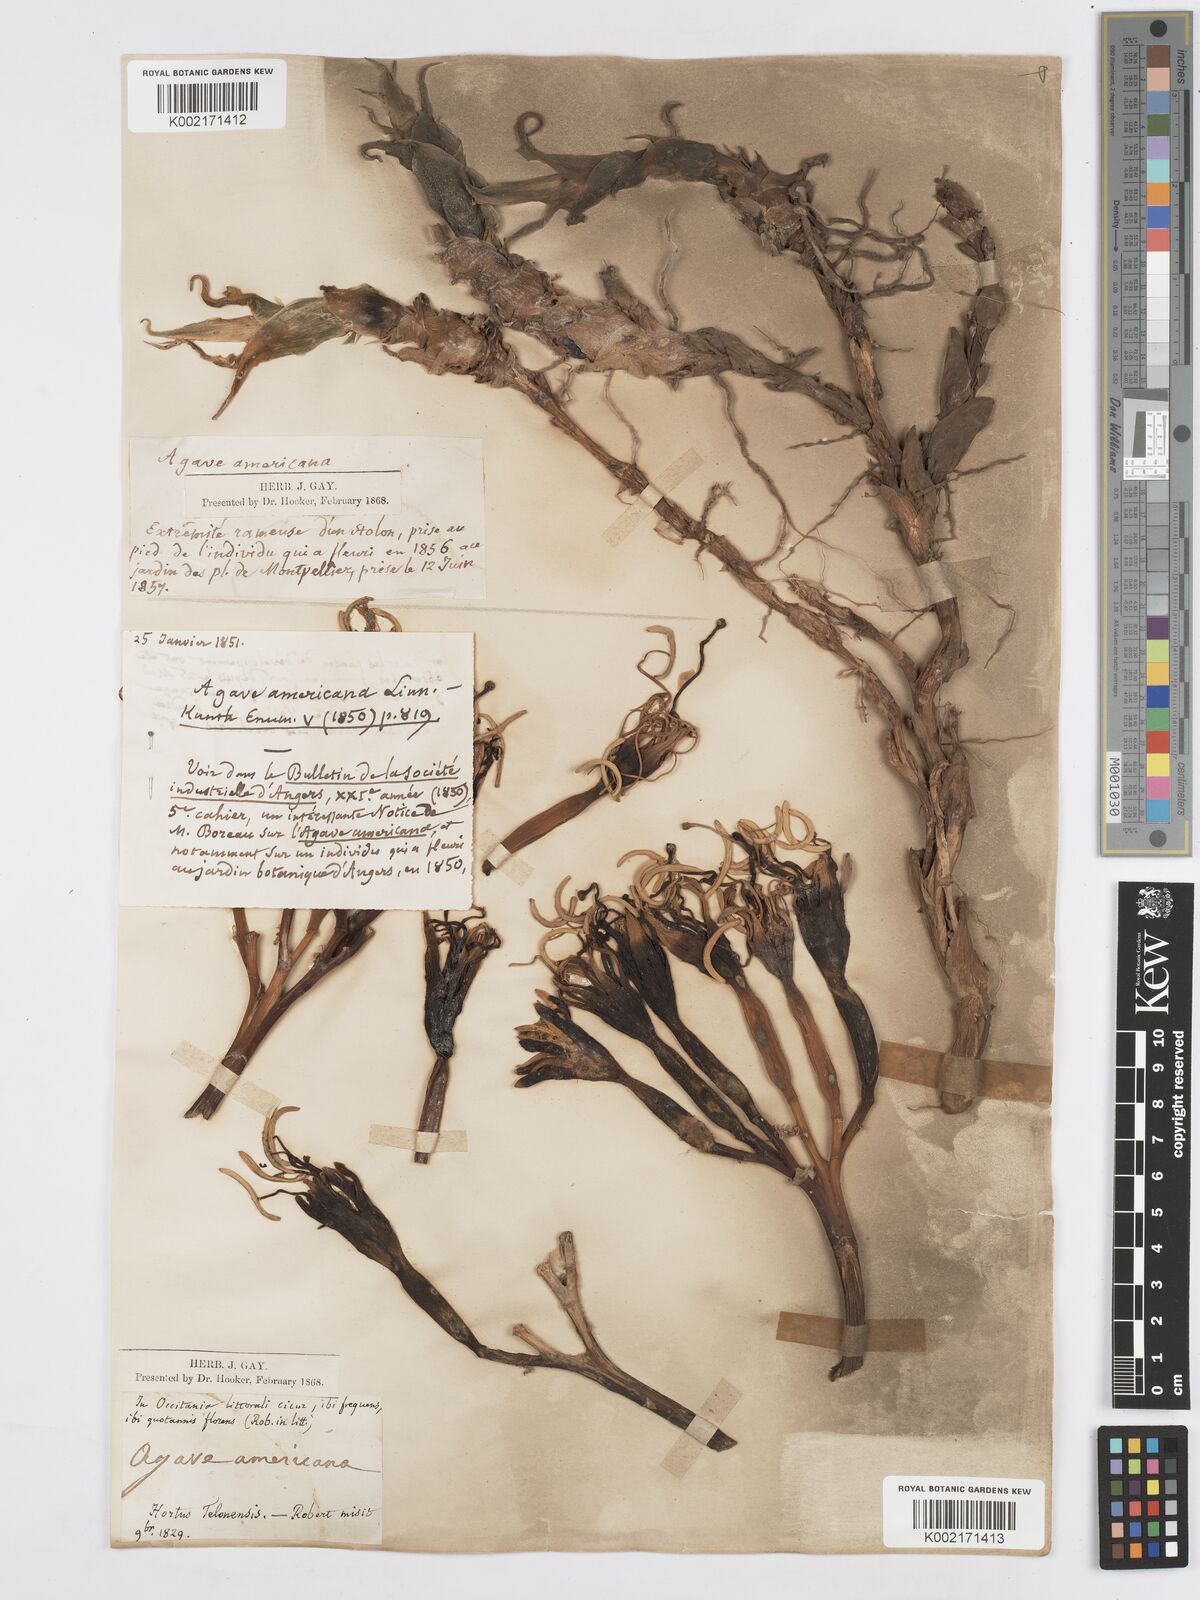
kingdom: Plantae
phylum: Tracheophyta
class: Liliopsida
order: Asparagales
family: Asparagaceae
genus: Agave
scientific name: Agave americana
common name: Centuryplant
